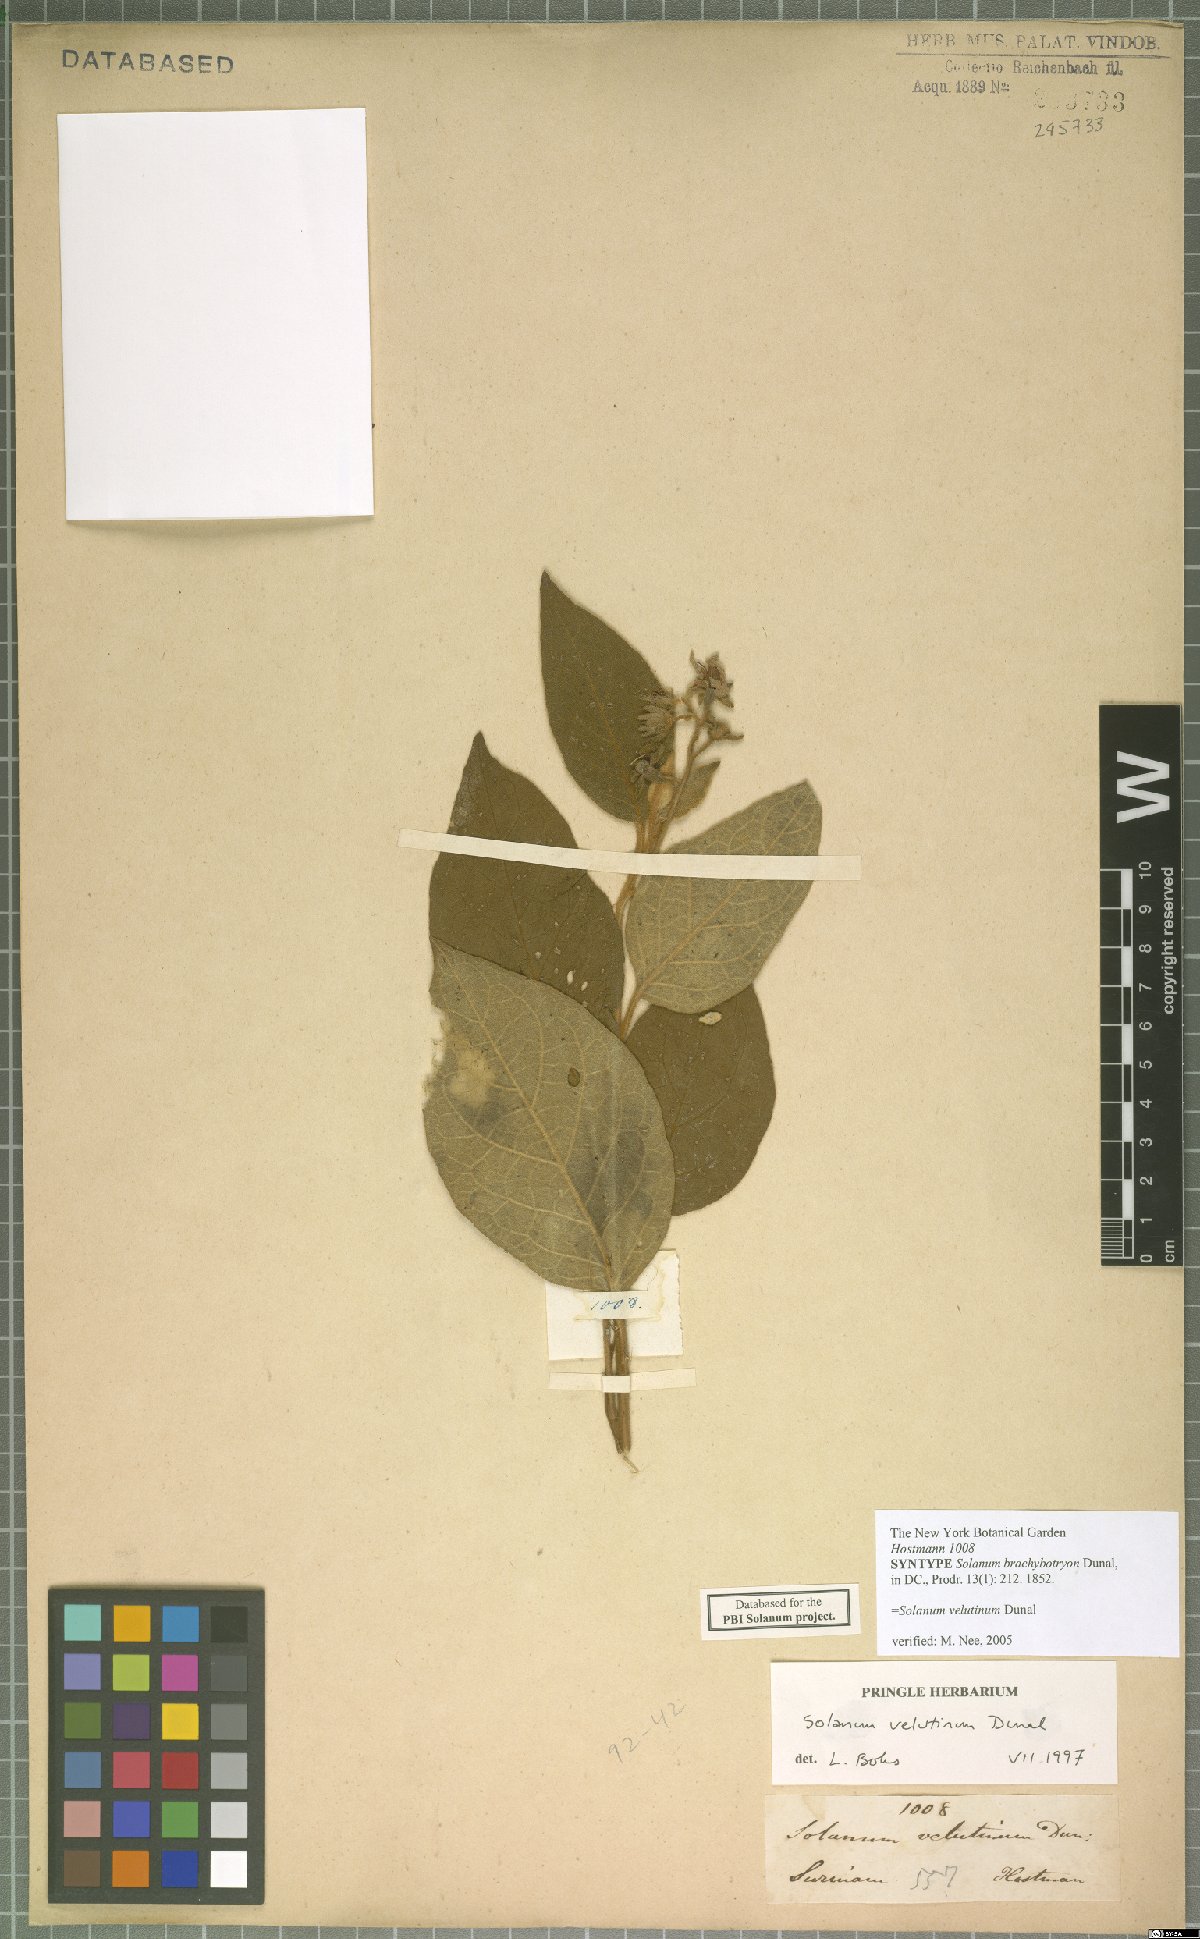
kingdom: Plantae
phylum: Tracheophyta
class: Magnoliopsida
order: Solanales
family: Solanaceae
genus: Solanum
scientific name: Solanum velutinum
